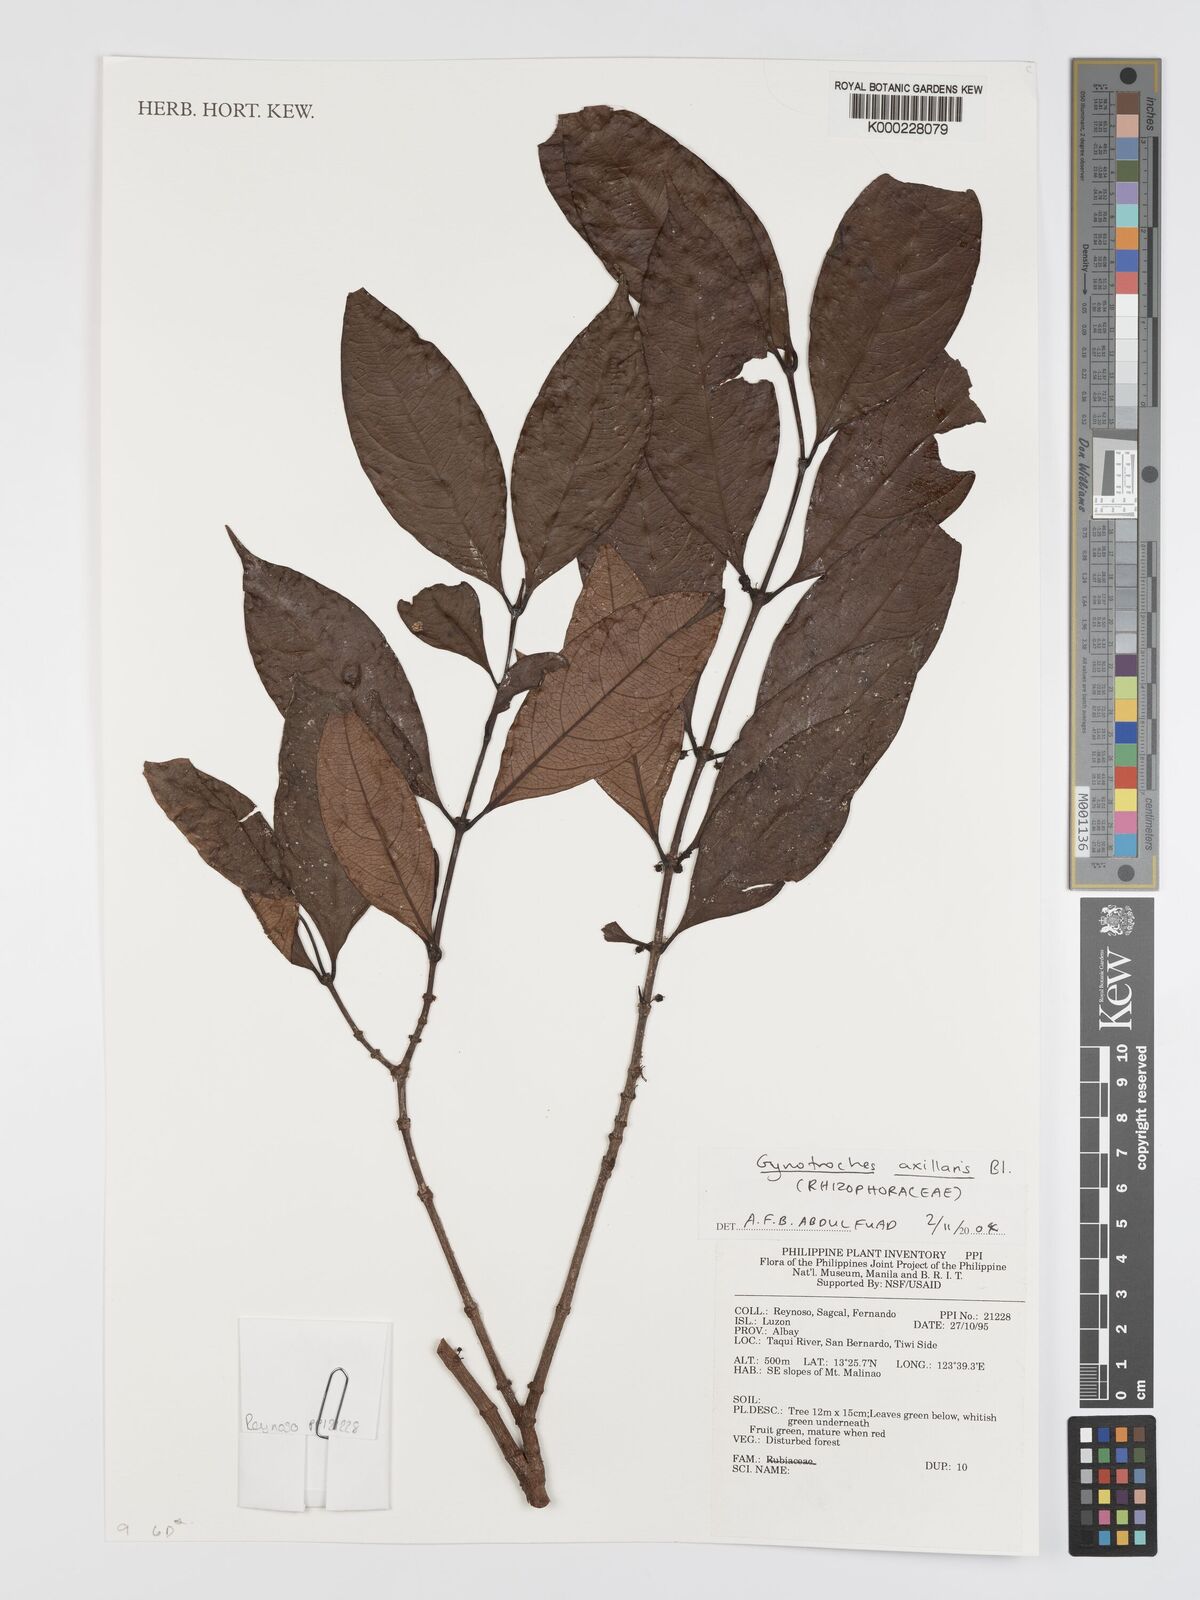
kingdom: Plantae
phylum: Tracheophyta
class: Magnoliopsida
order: Malpighiales
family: Rhizophoraceae
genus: Gynotroches
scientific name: Gynotroches axillaris
